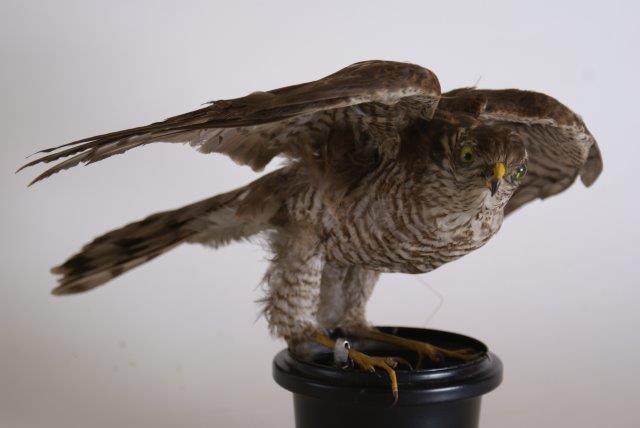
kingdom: Animalia
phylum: Chordata
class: Aves
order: Accipitriformes
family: Accipitridae
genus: Accipiter
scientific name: Accipiter nisus
